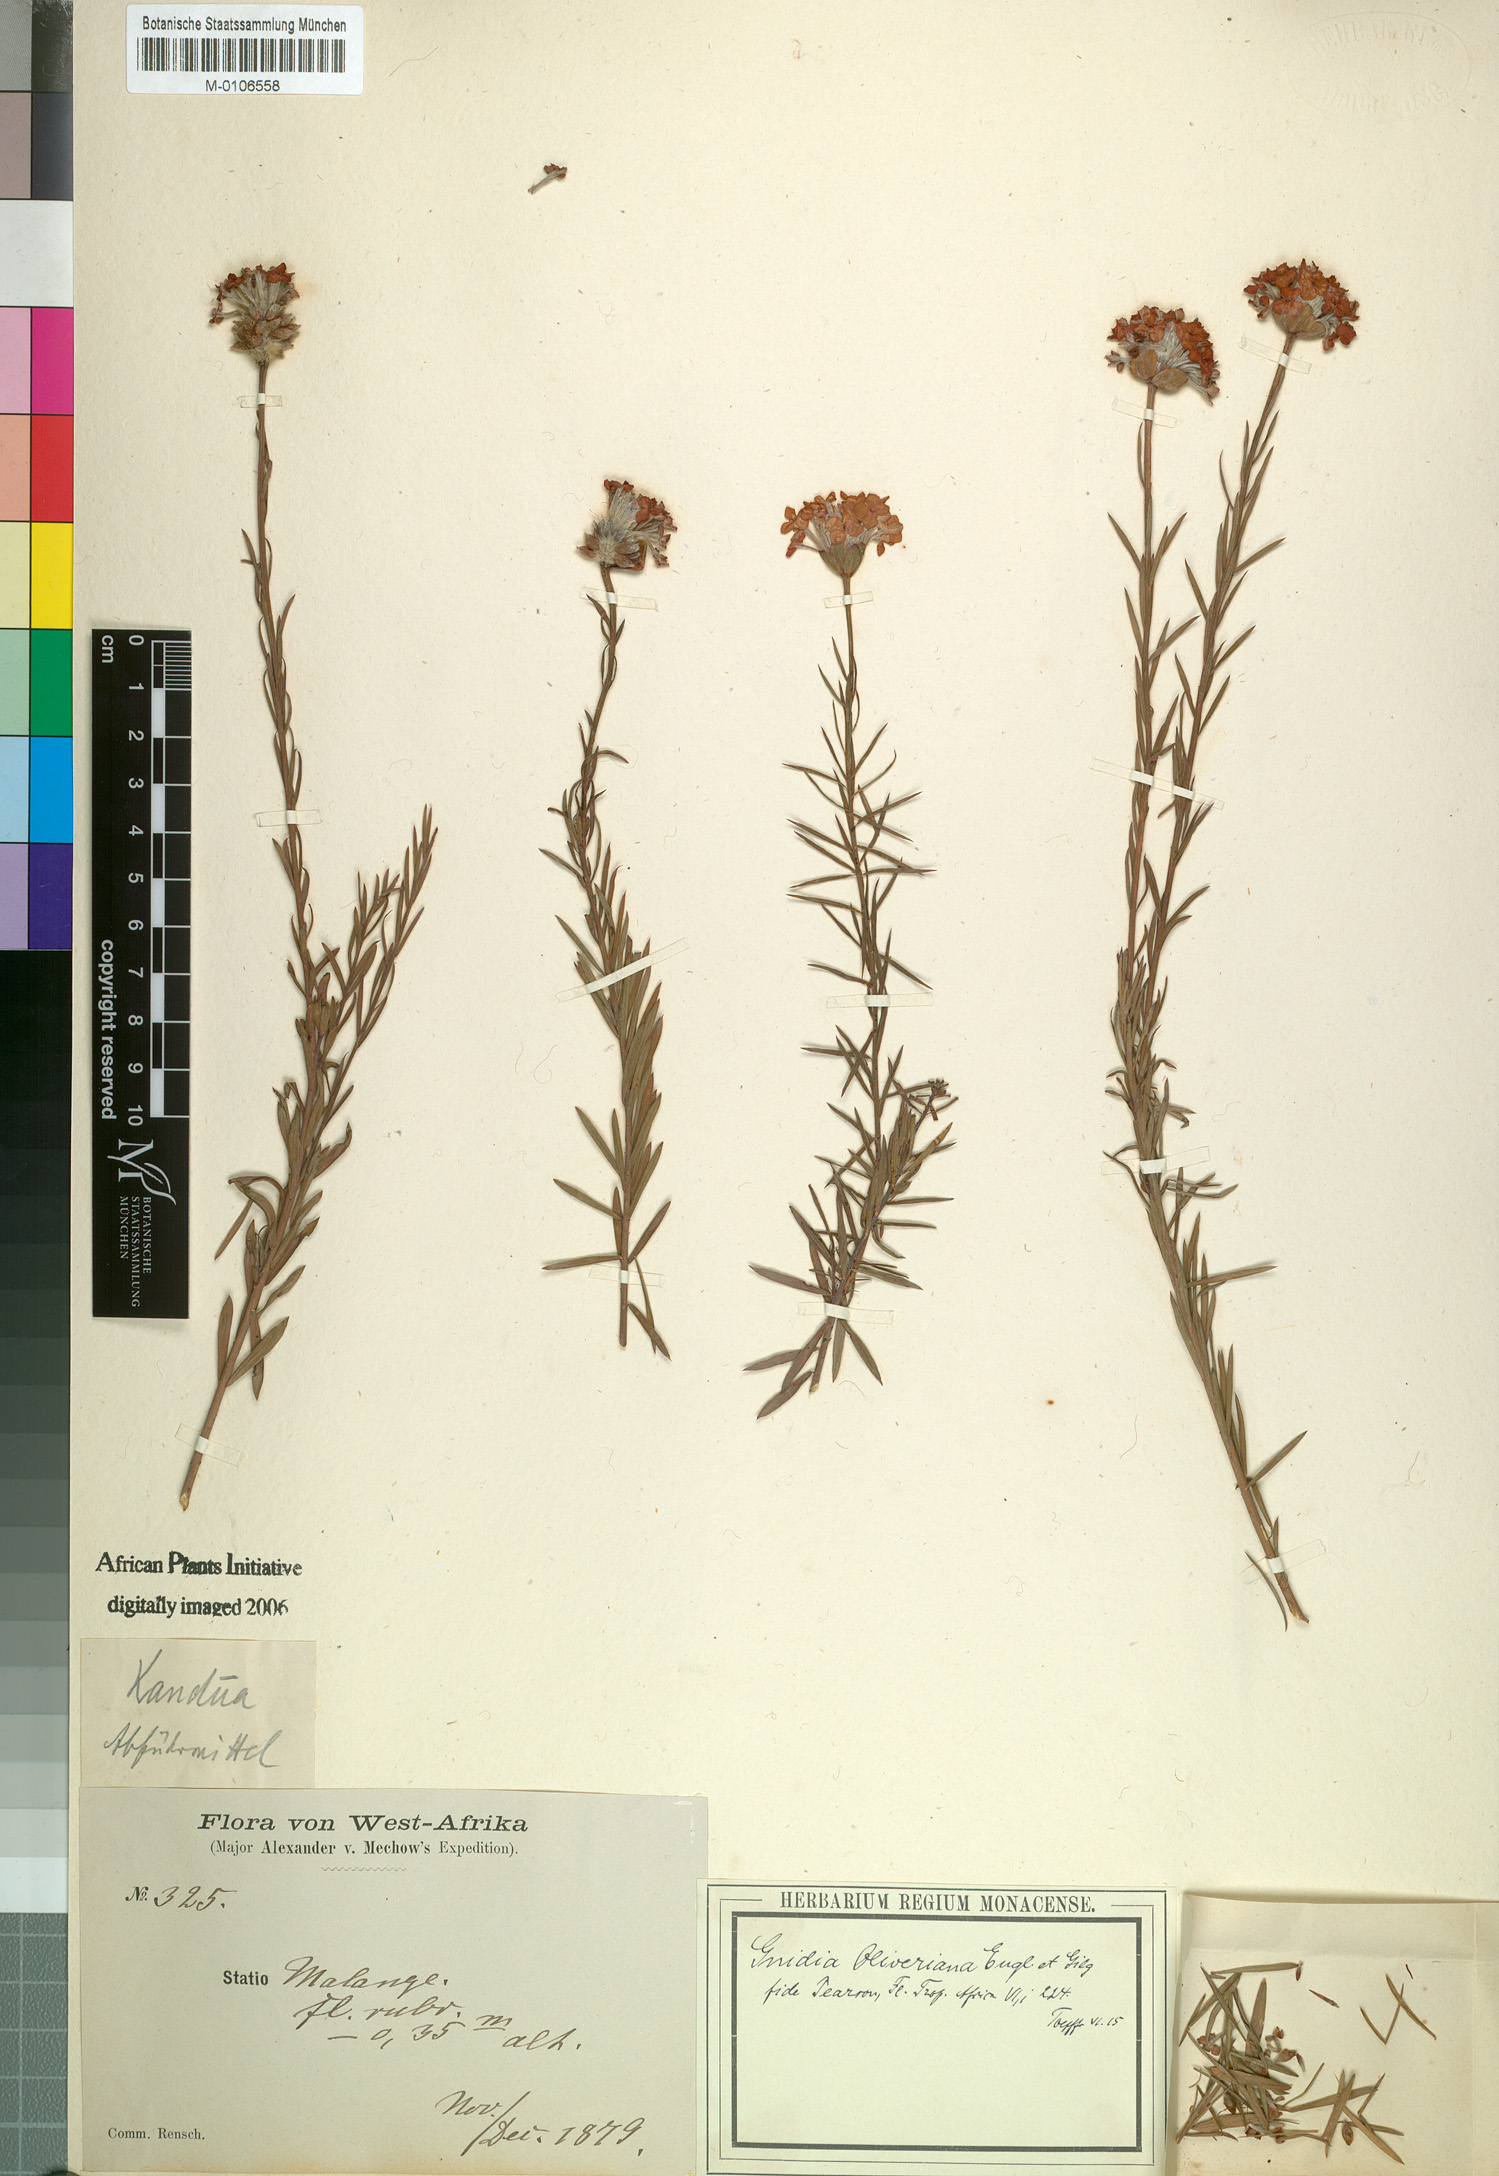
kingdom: Plantae
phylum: Tracheophyta
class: Magnoliopsida
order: Malvales
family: Thymelaeaceae
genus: Gnidia
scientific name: Gnidia oliveriana
